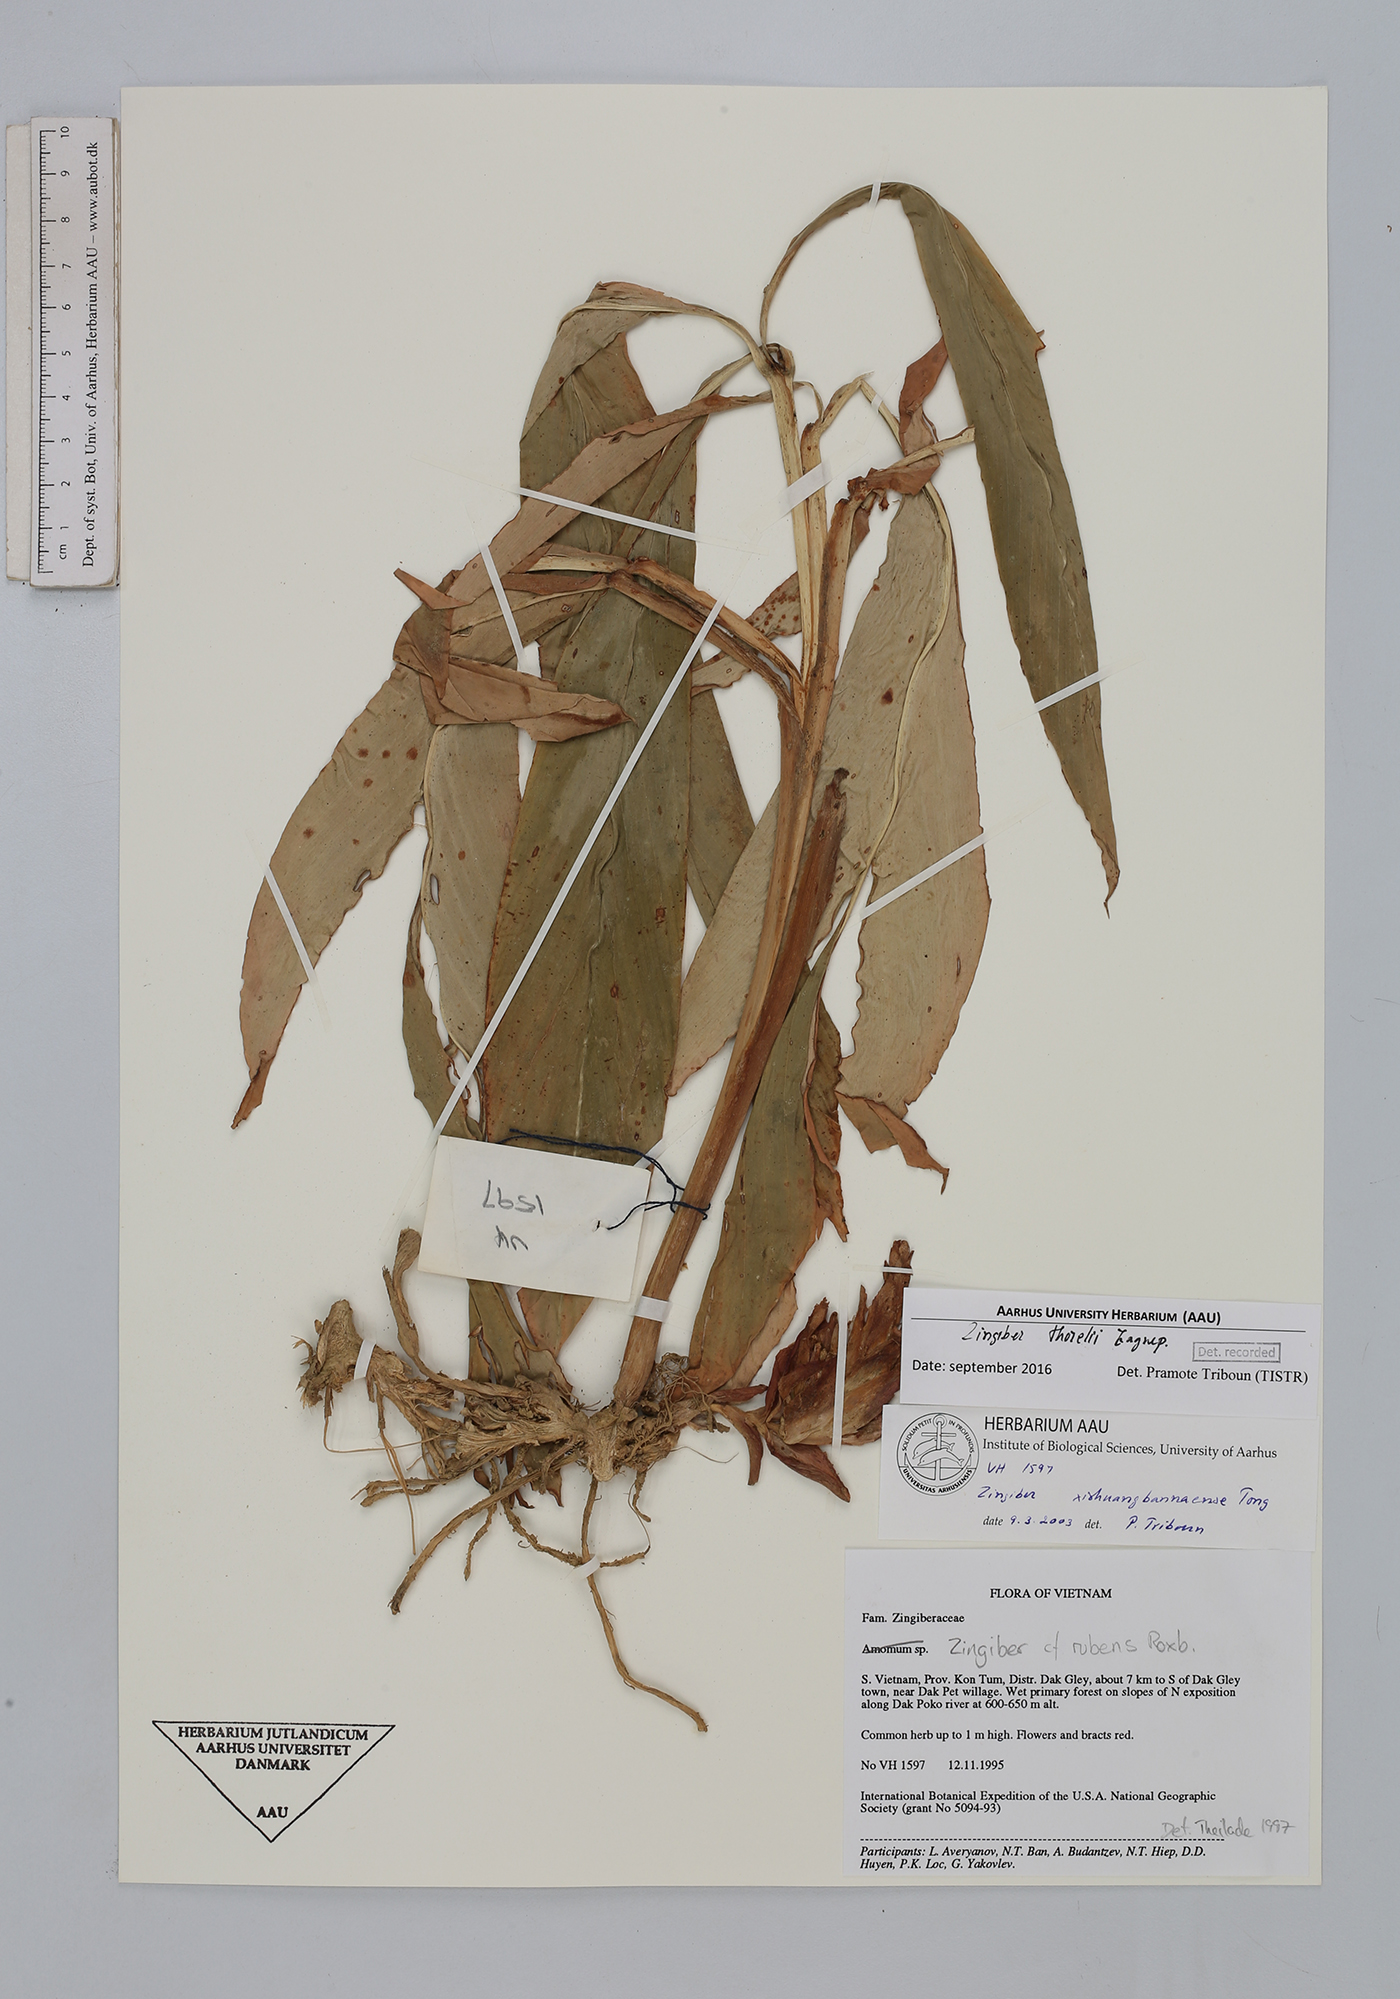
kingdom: Plantae
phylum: Tracheophyta
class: Liliopsida
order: Zingiberales
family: Zingiberaceae
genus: Zingiber
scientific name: Zingiber thorelii
